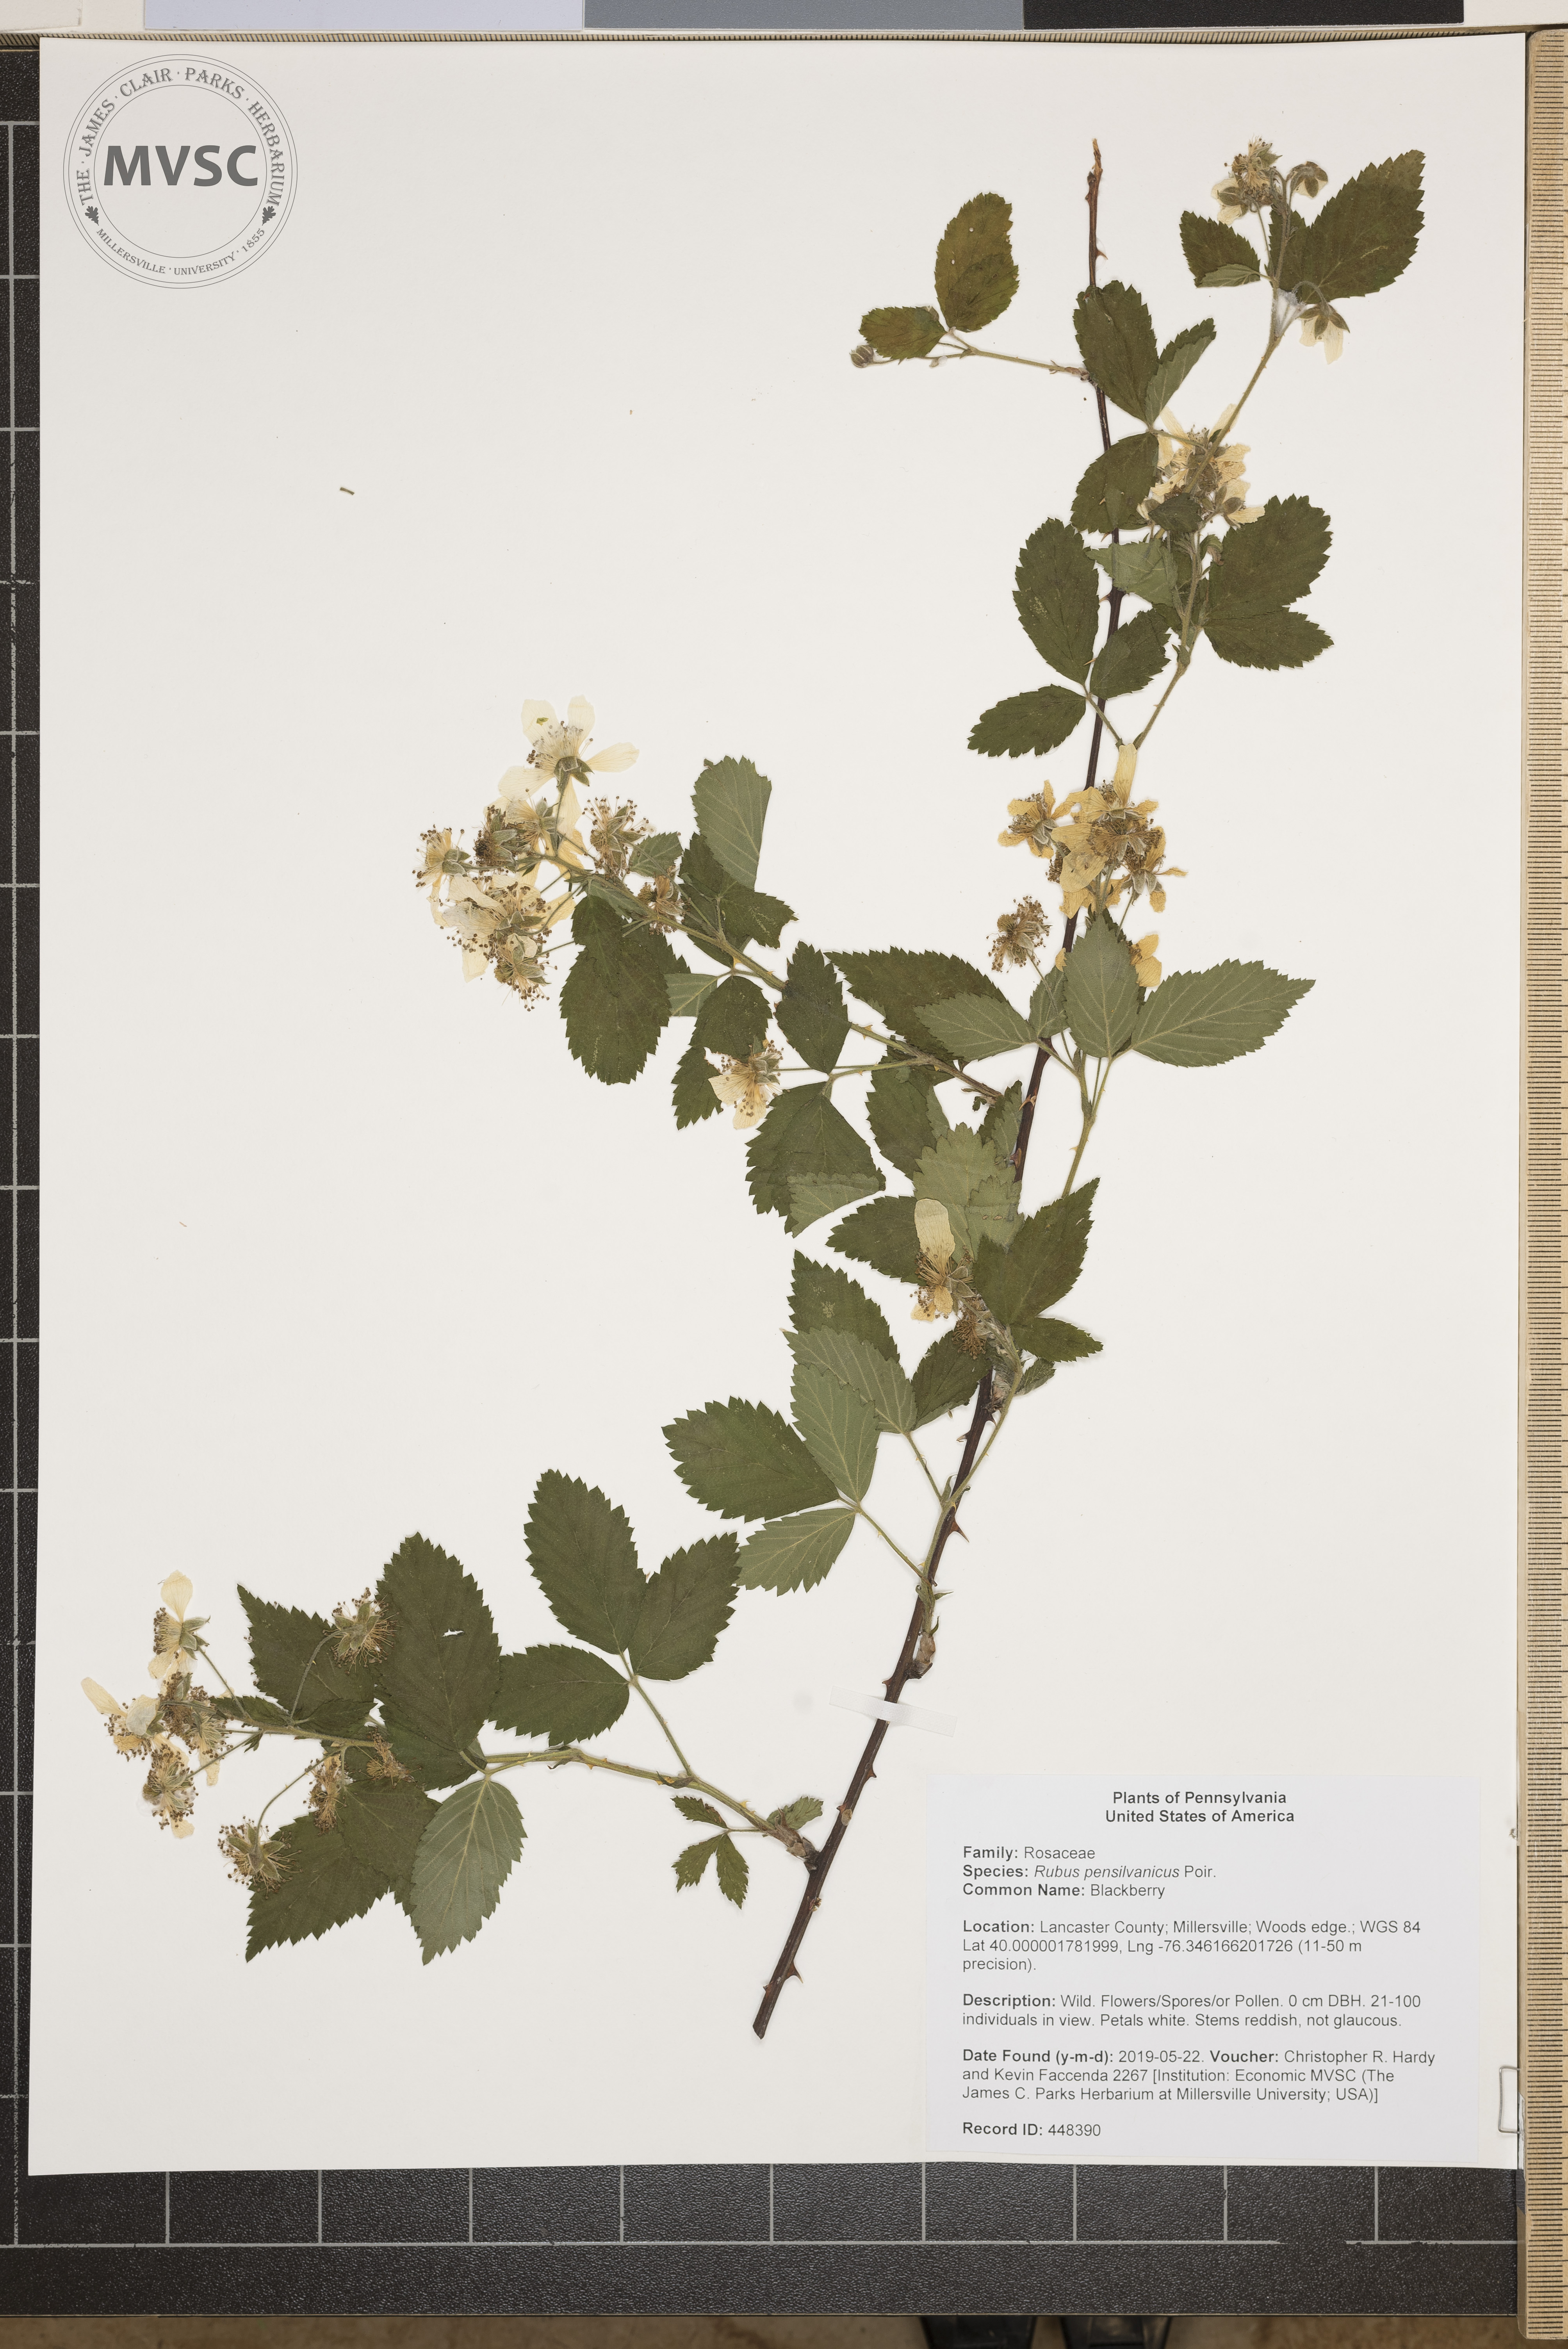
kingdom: Plantae
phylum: Tracheophyta
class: Magnoliopsida
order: Rosales
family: Rosaceae
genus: Rubus
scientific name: Rubus pensilvanicus
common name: Blackberry
